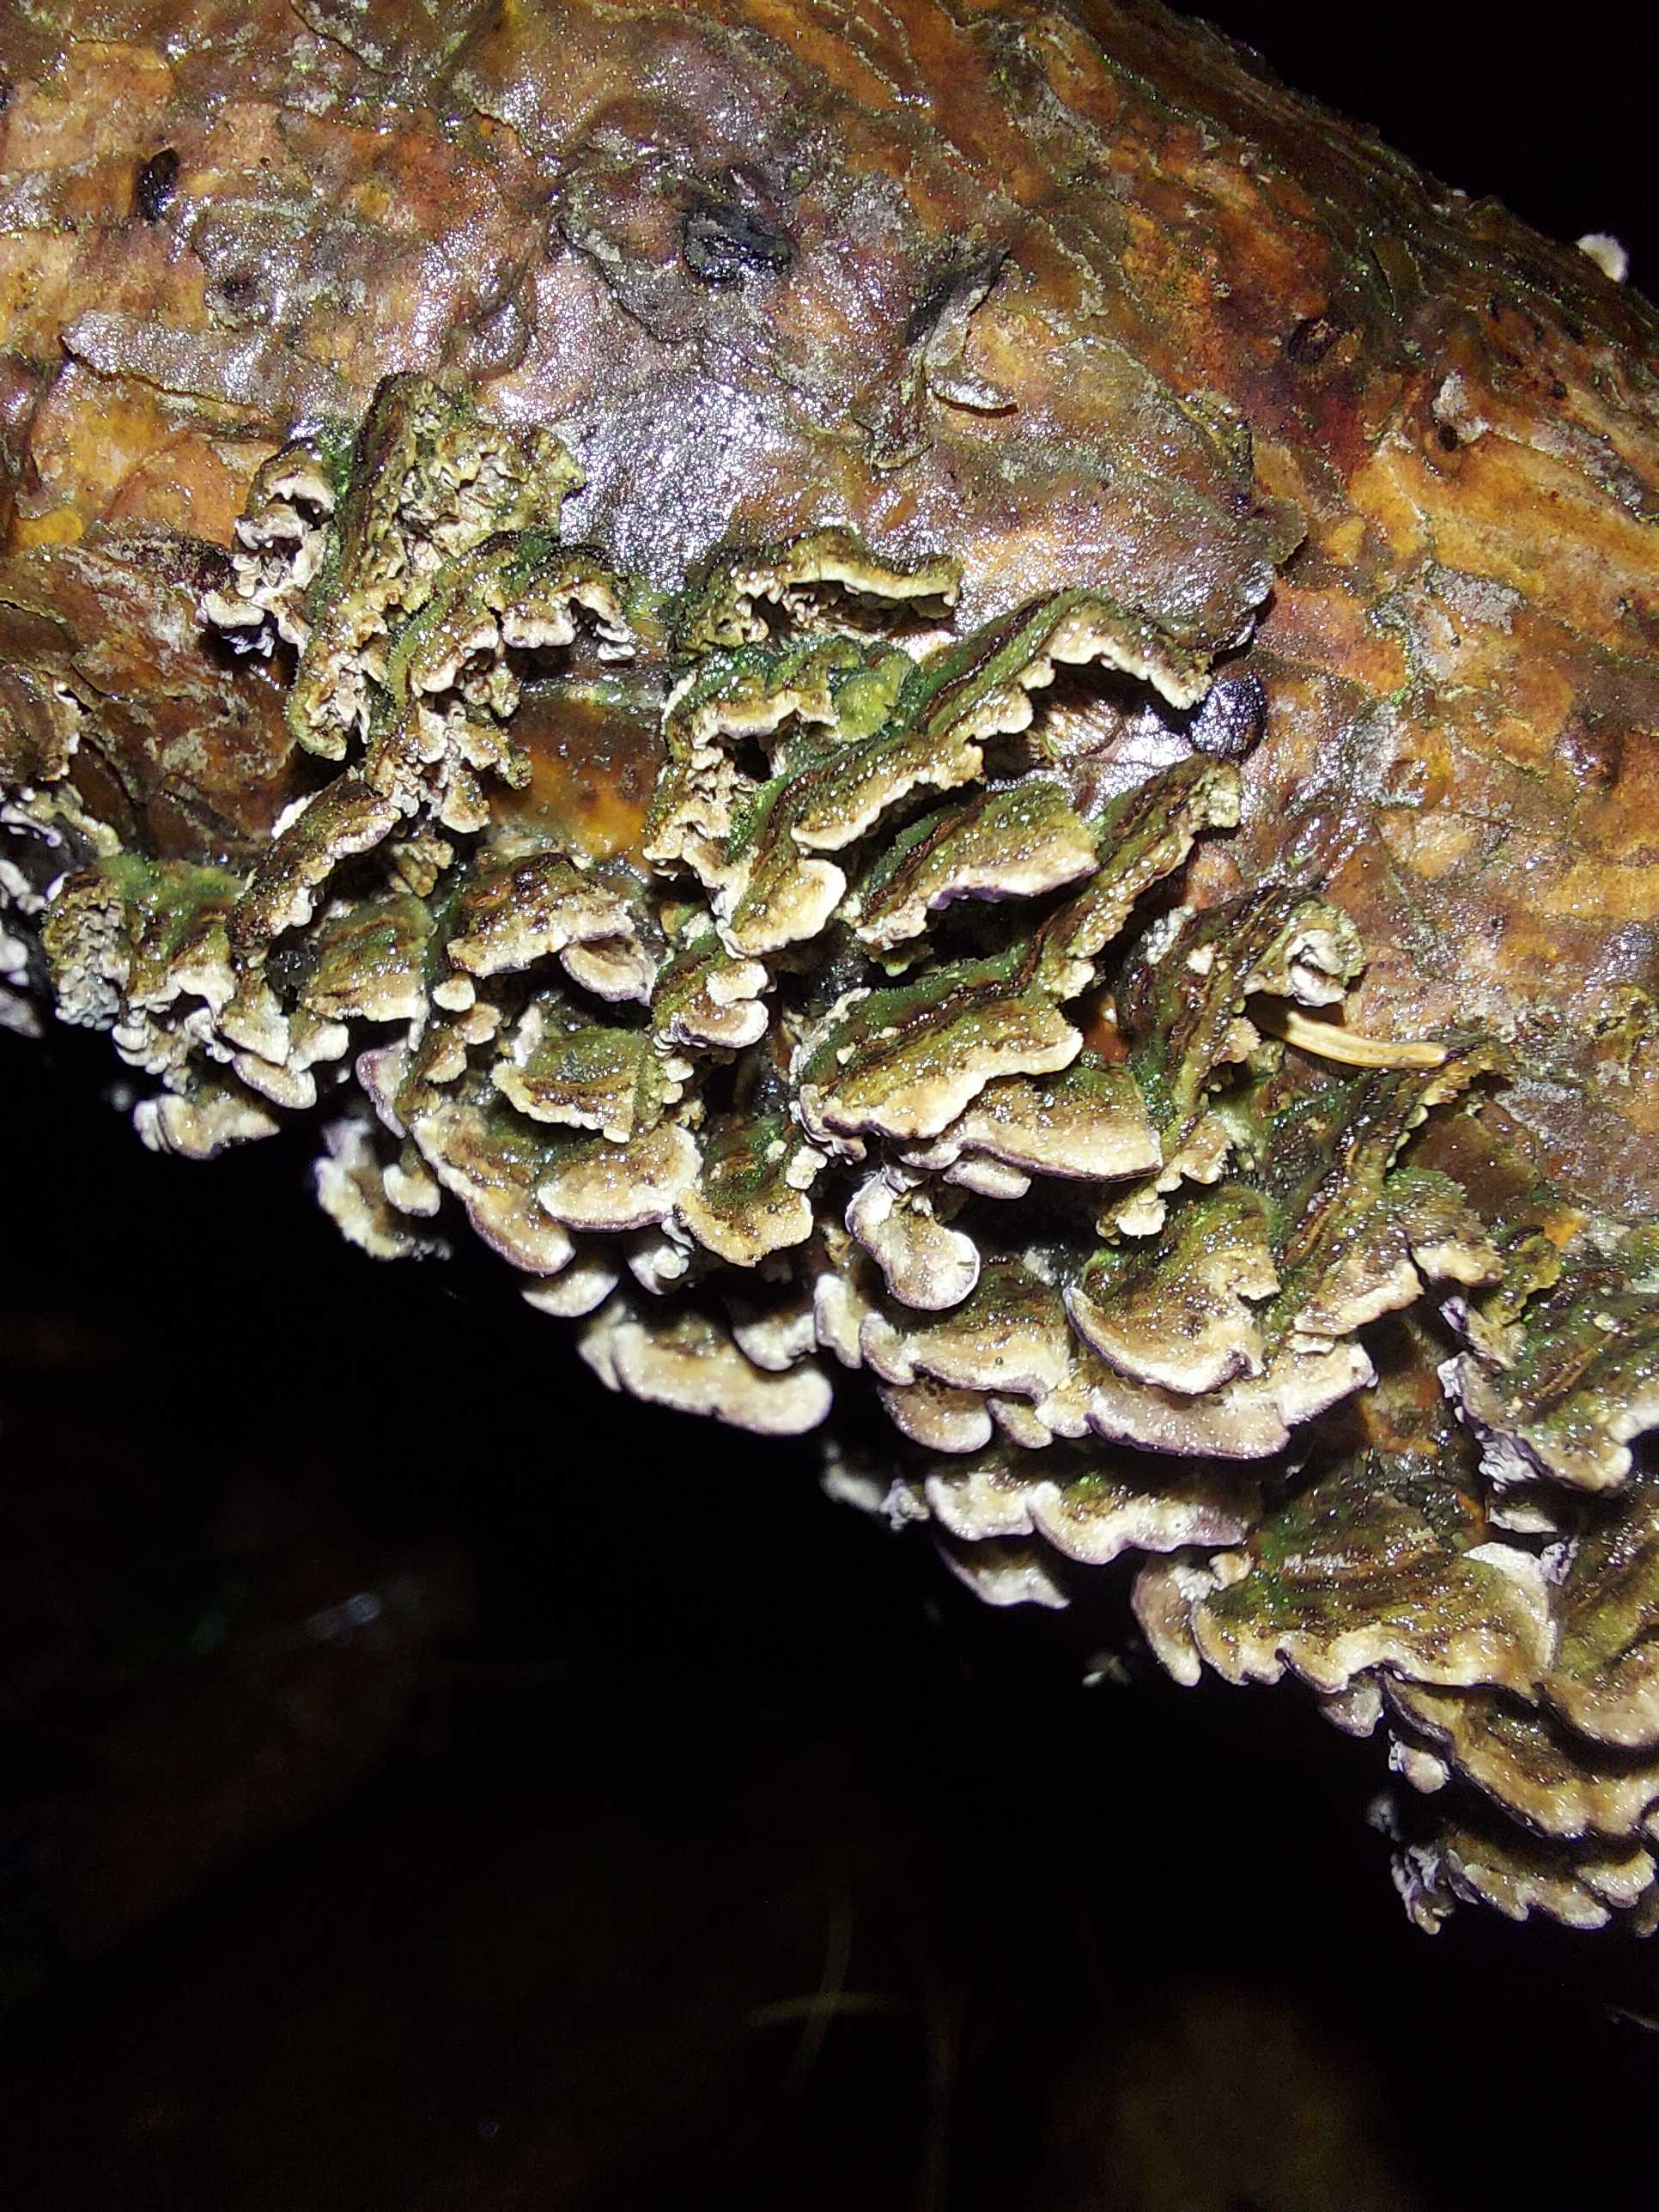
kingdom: Fungi
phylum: Basidiomycota
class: Agaricomycetes
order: Hymenochaetales
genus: Trichaptum
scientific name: Trichaptum fuscoviolaceum
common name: tandet violporesvamp
